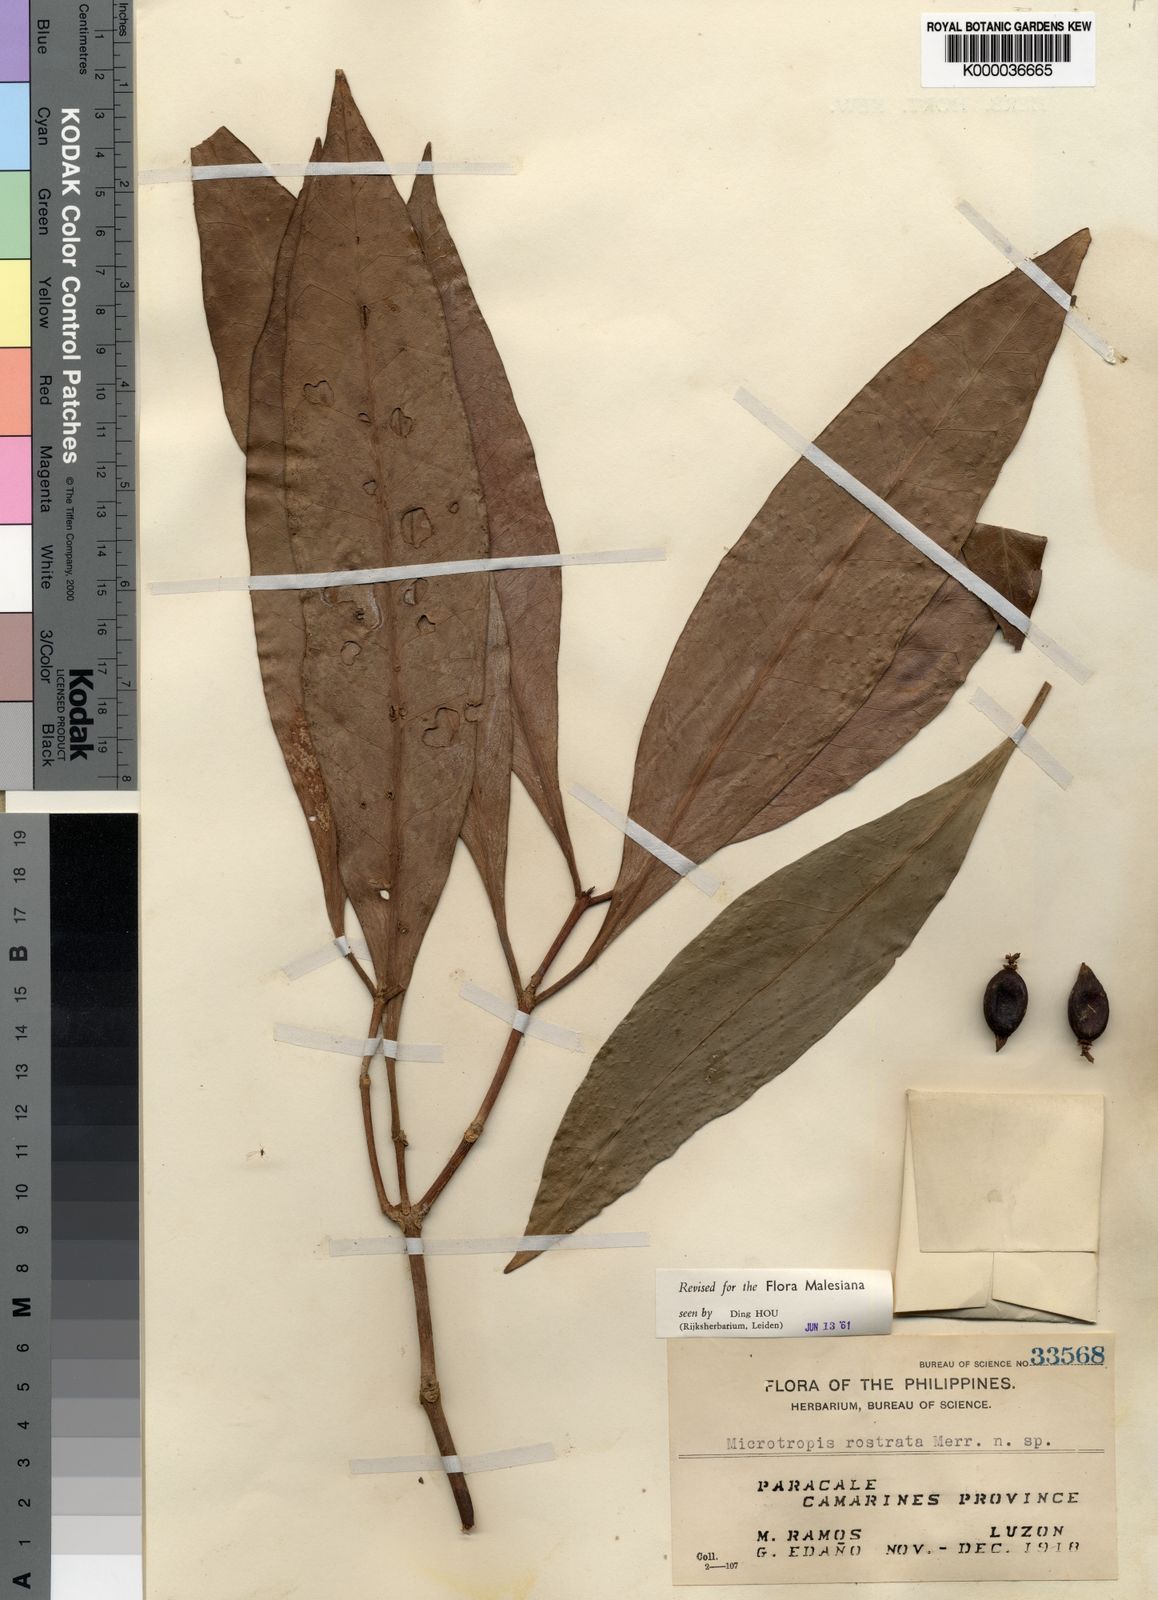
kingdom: Plantae
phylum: Tracheophyta
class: Magnoliopsida
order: Celastrales
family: Celastraceae
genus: Microtropis
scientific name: Microtropis platyphylla
